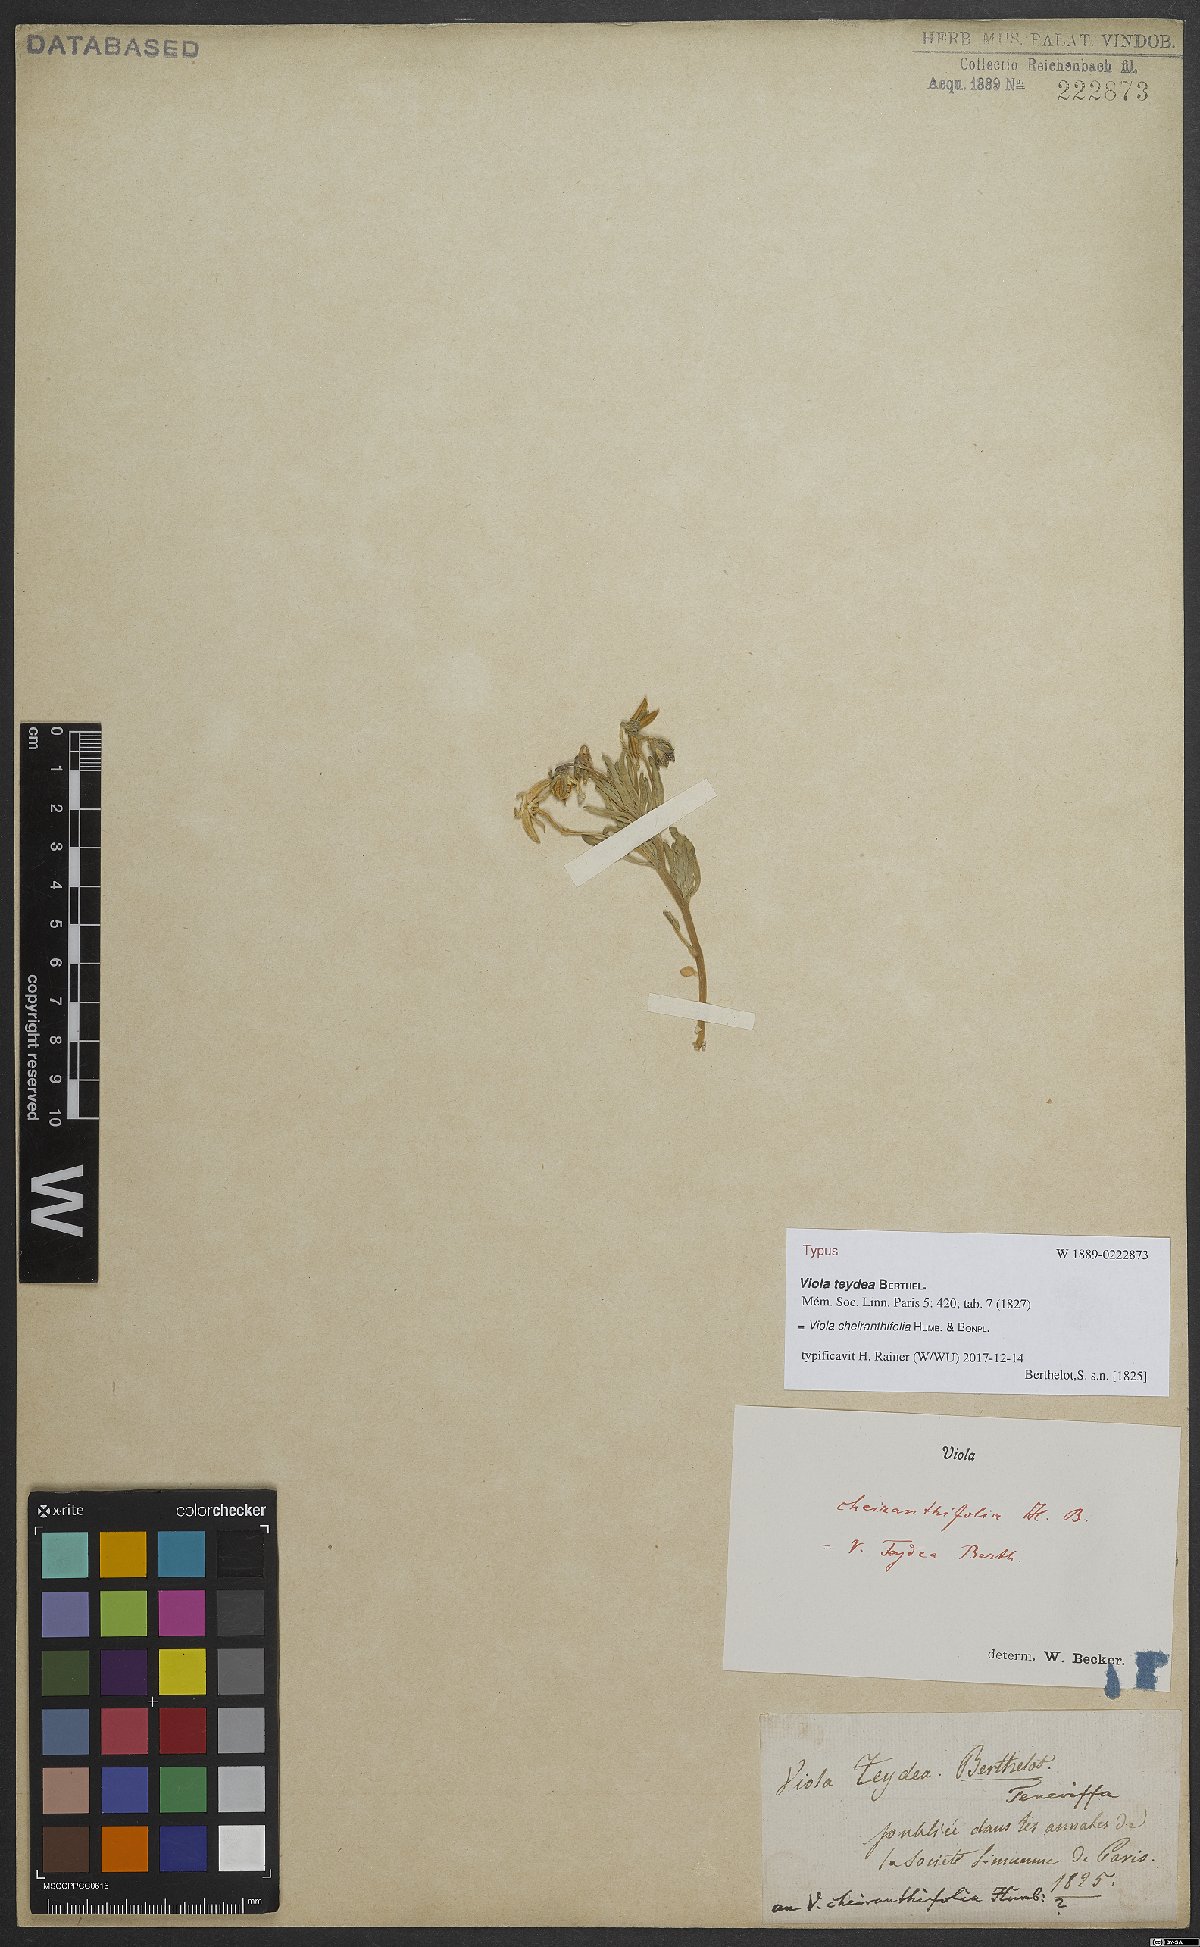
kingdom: Plantae
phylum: Tracheophyta
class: Magnoliopsida
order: Malpighiales
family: Violaceae
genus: Viola
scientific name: Viola cheiranthifolia
